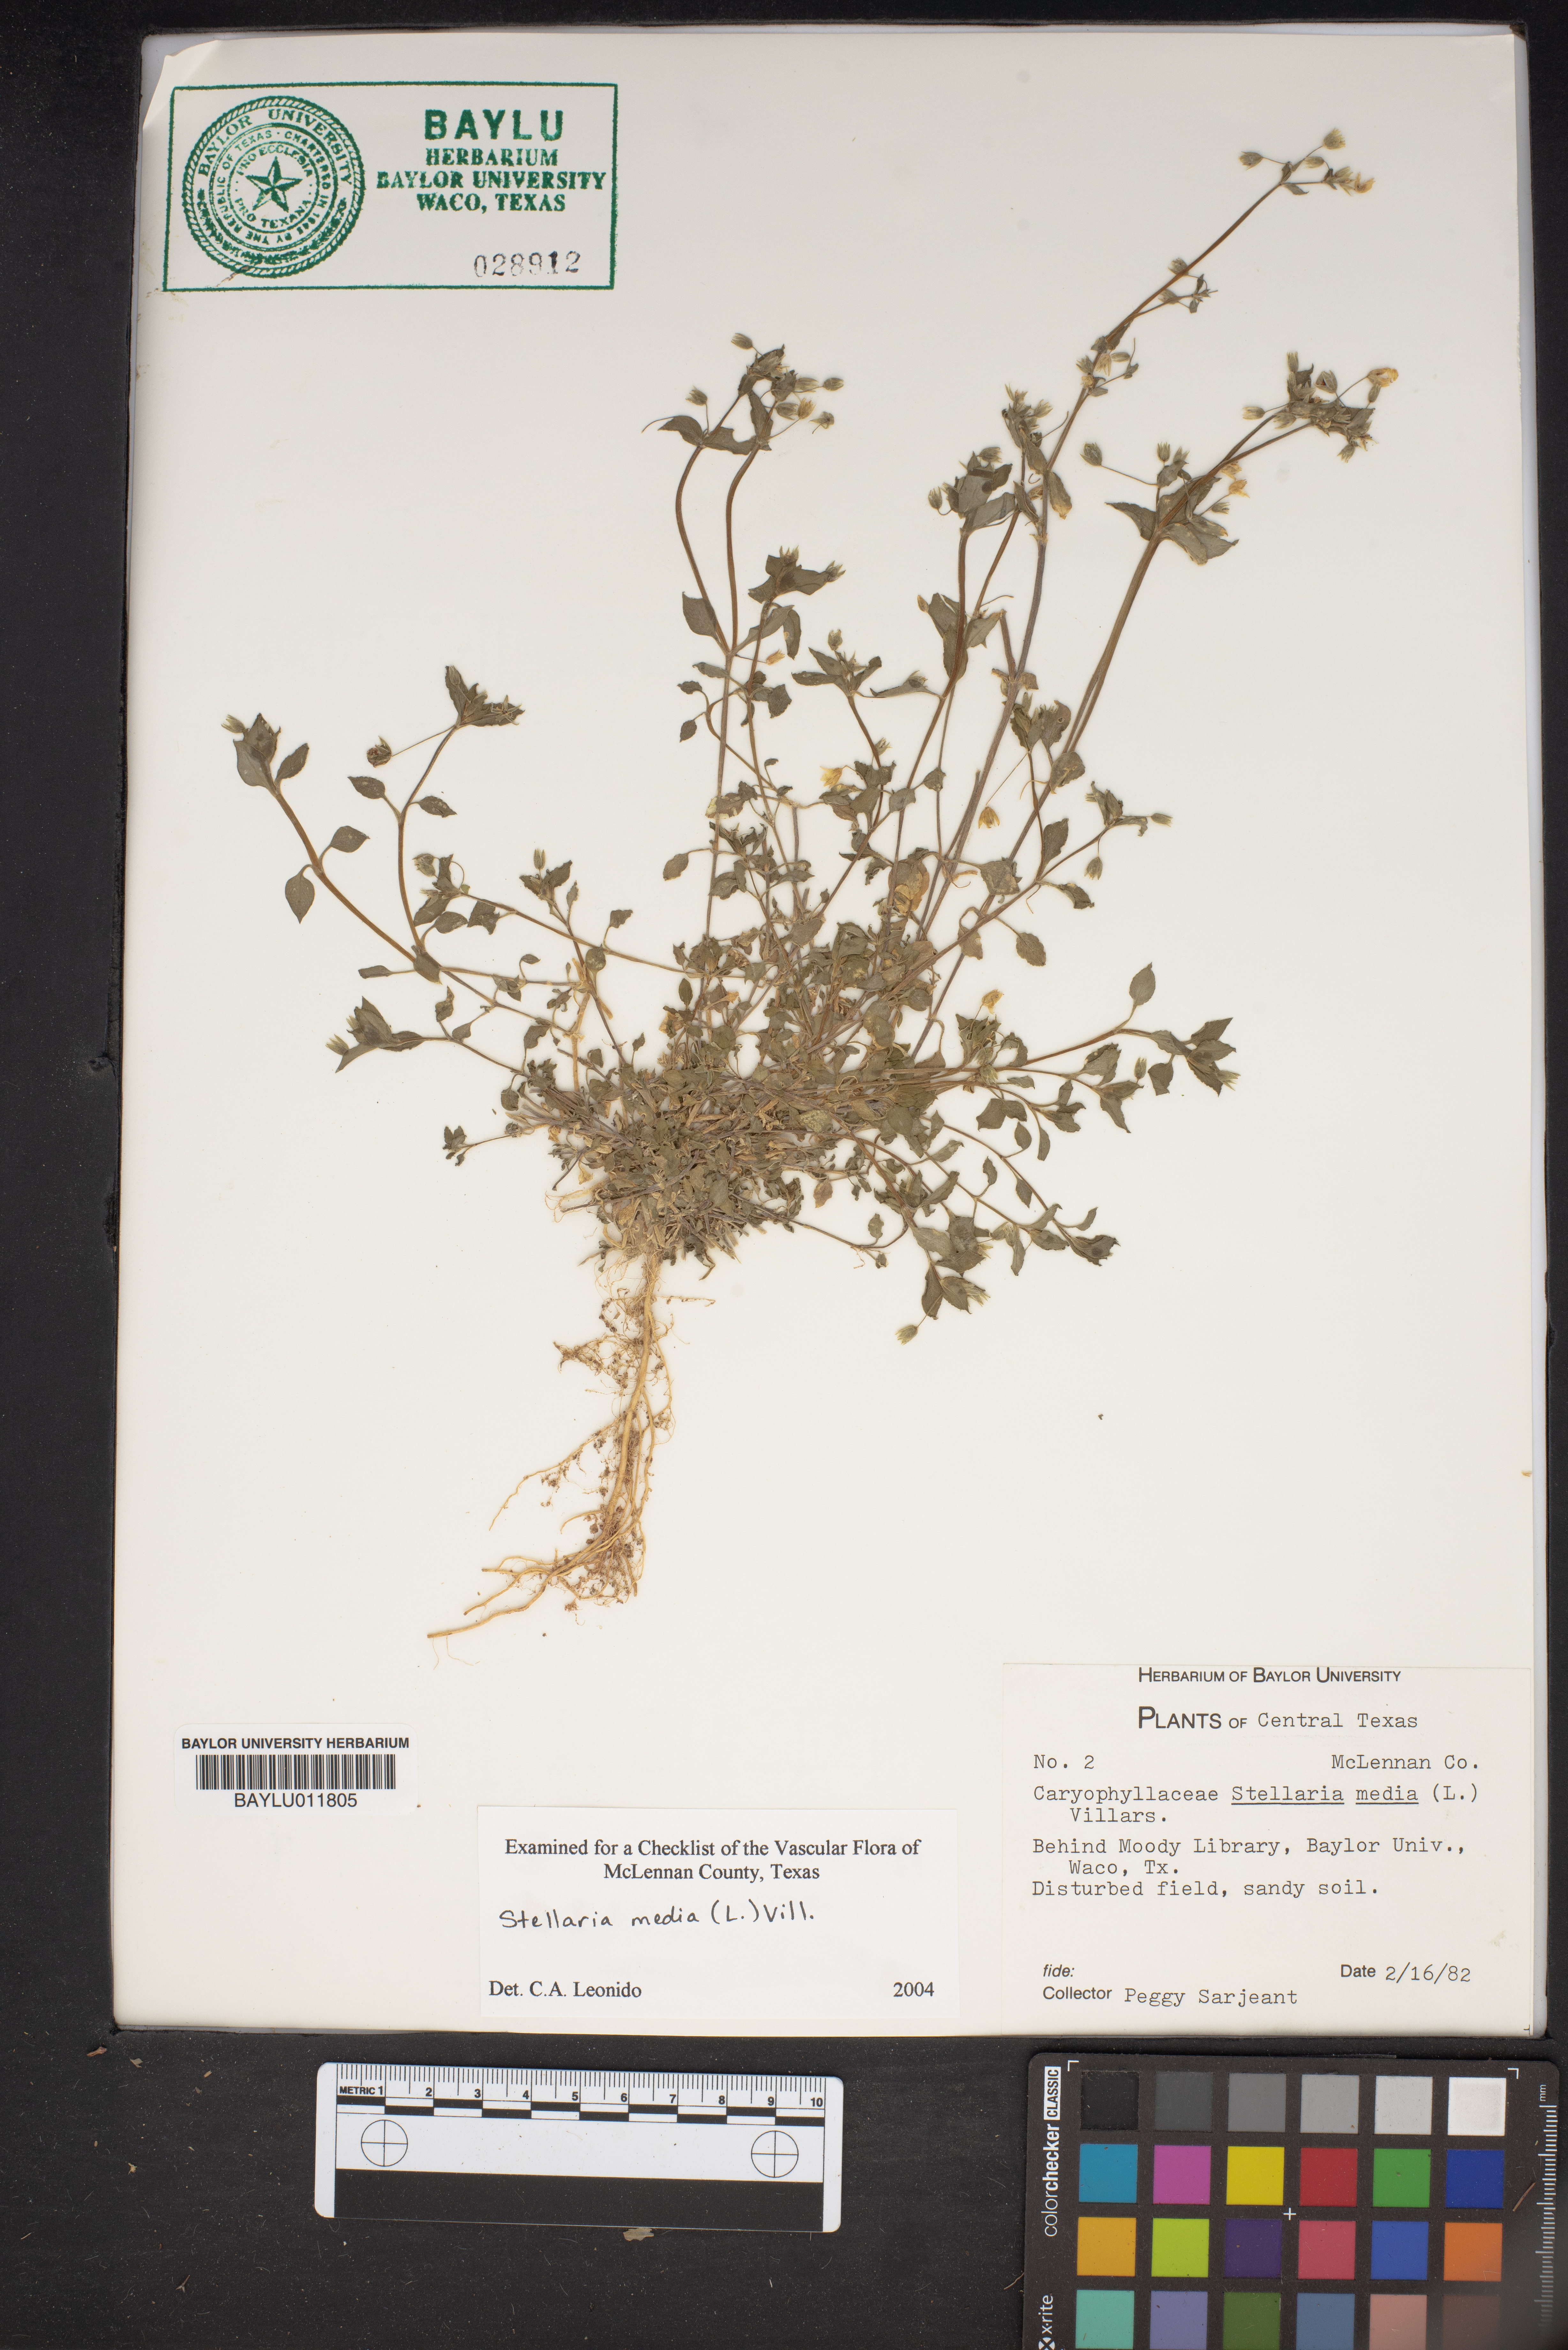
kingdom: Plantae
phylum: Tracheophyta
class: Magnoliopsida
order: Caryophyllales
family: Caryophyllaceae
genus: Stellaria
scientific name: Stellaria media
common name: Common chickweed
